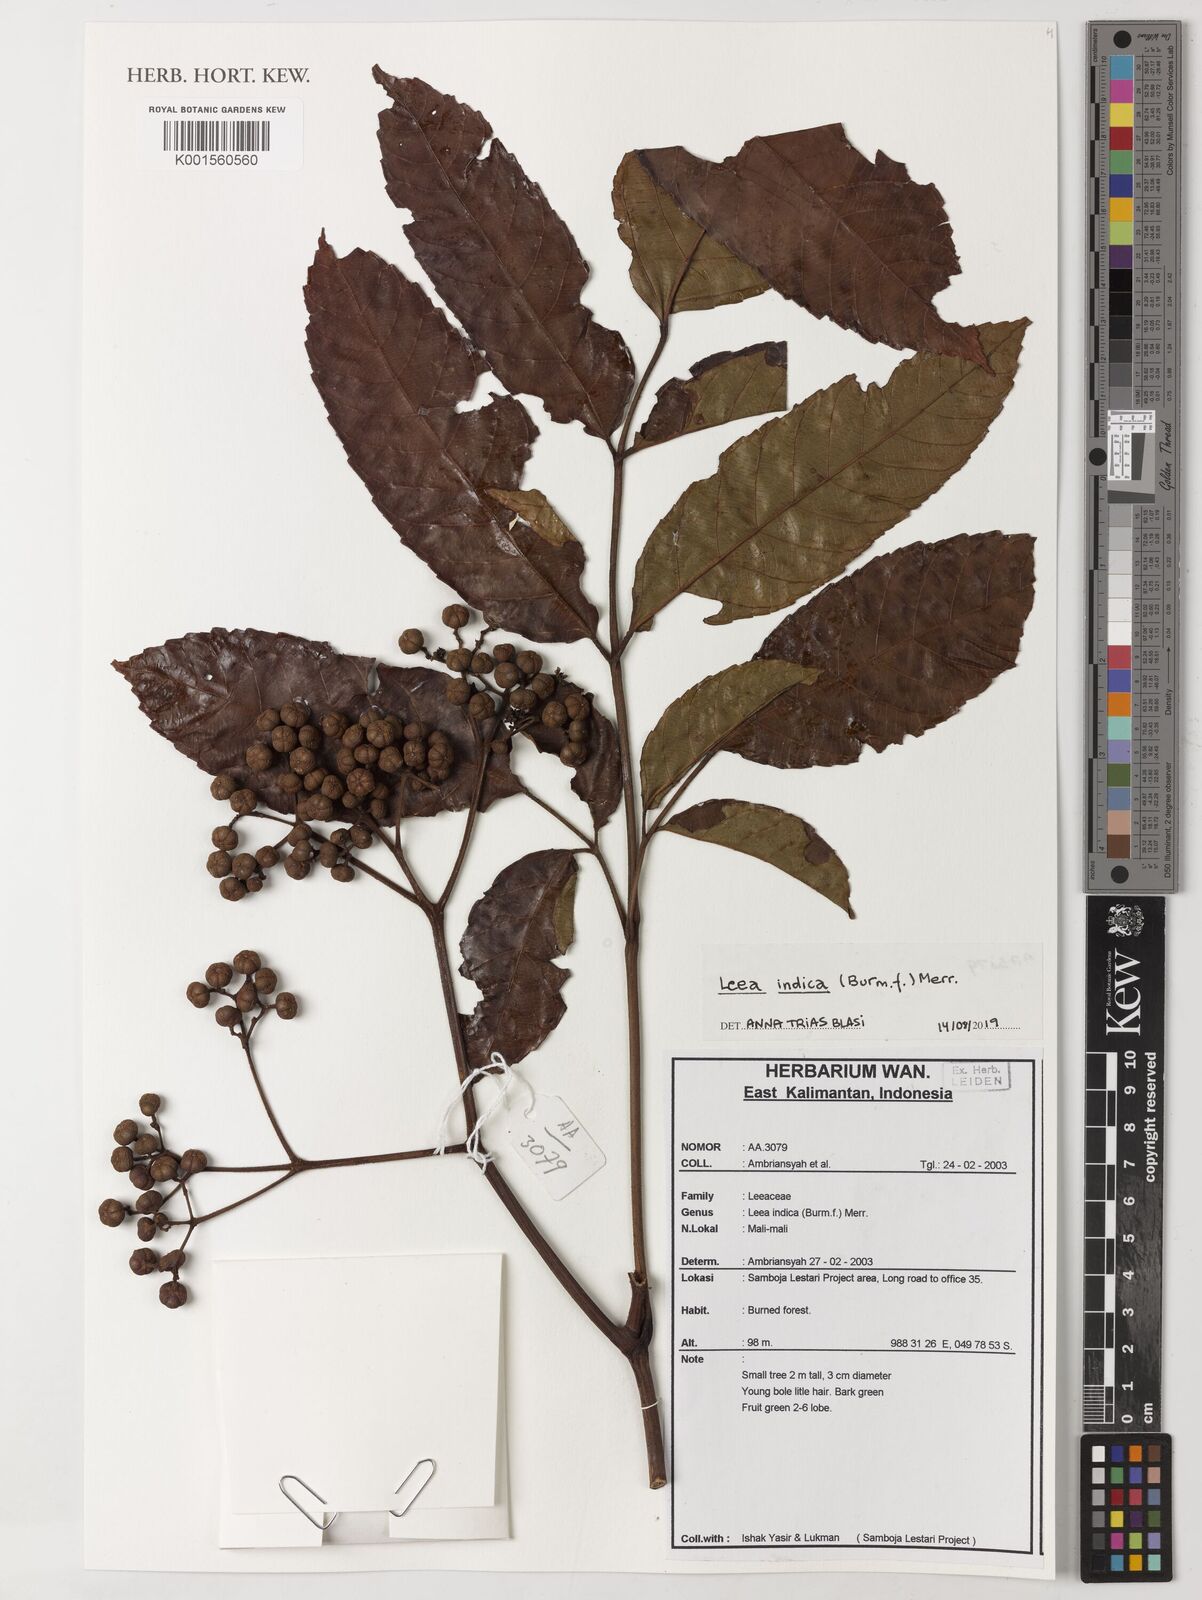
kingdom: Plantae
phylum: Tracheophyta
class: Magnoliopsida
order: Vitales
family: Vitaceae
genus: Leea
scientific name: Leea indica
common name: Bandicoot-berry
